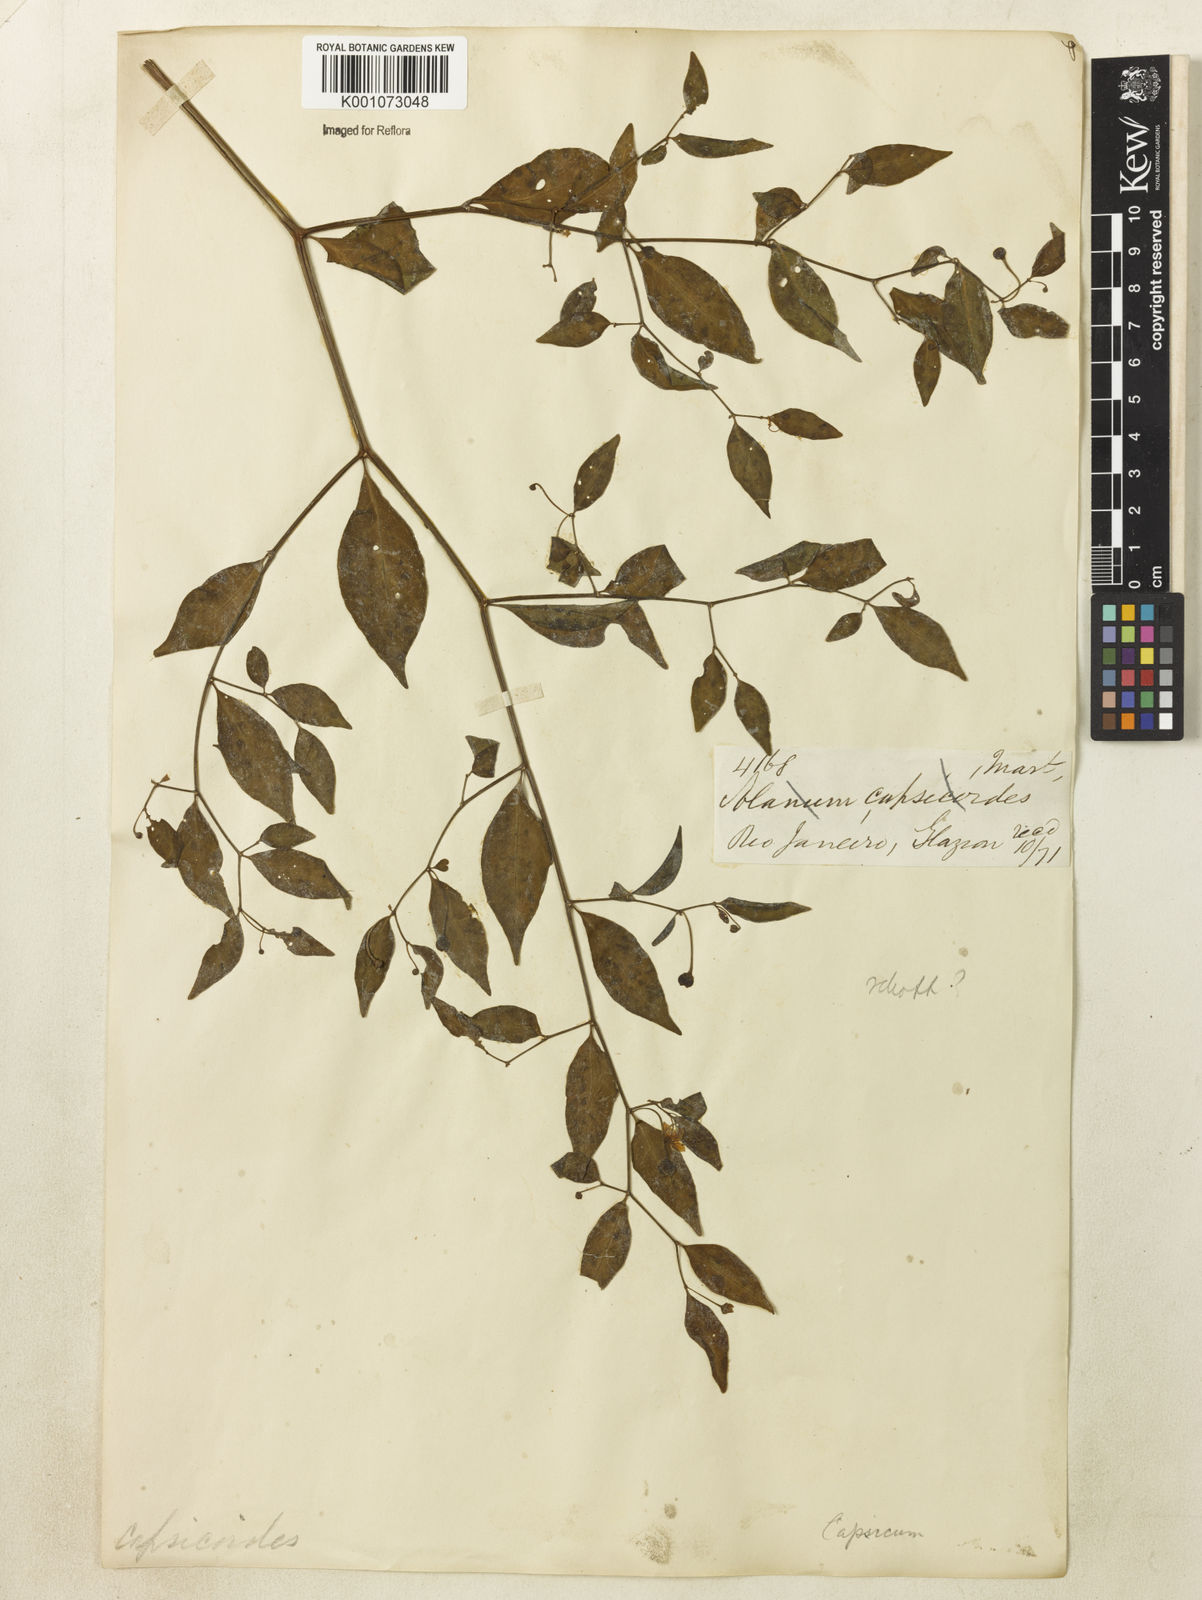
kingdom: Plantae
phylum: Tracheophyta
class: Magnoliopsida
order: Solanales
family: Solanaceae
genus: Capsicum
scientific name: Capsicum
